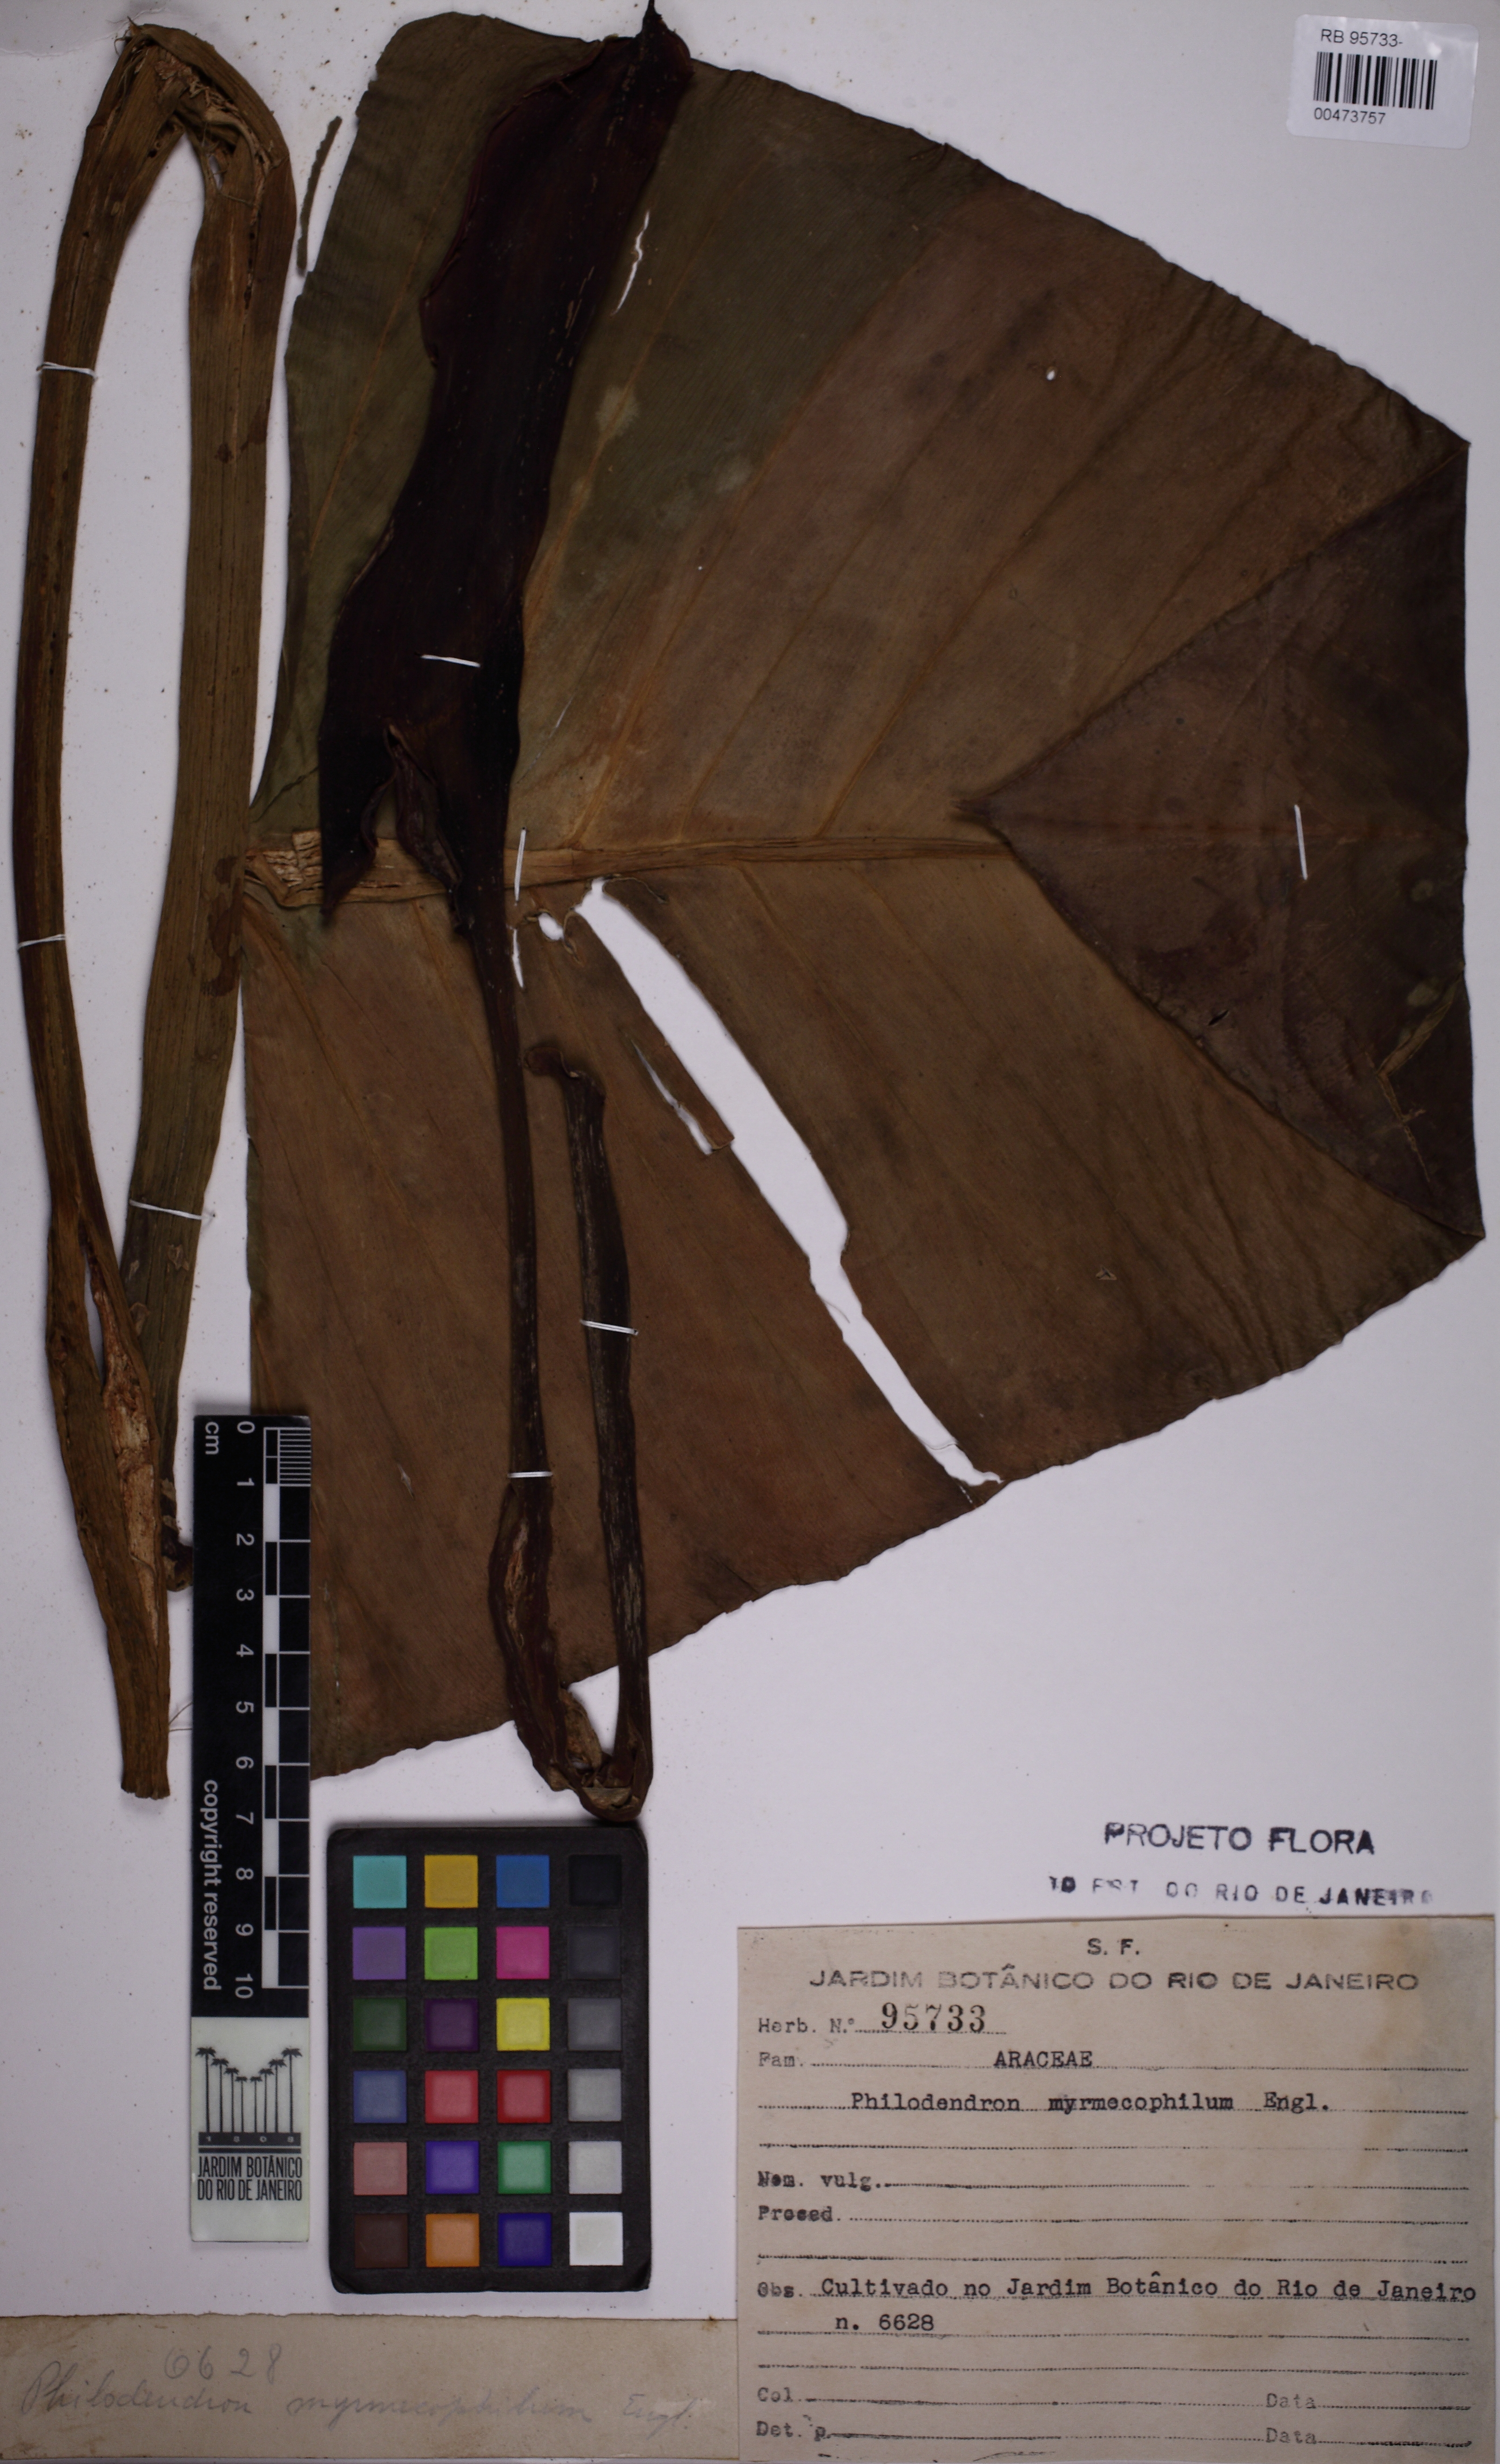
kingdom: Plantae
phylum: Tracheophyta
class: Liliopsida
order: Alismatales
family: Araceae
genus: Philodendron
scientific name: Philodendron myrmecophilum
